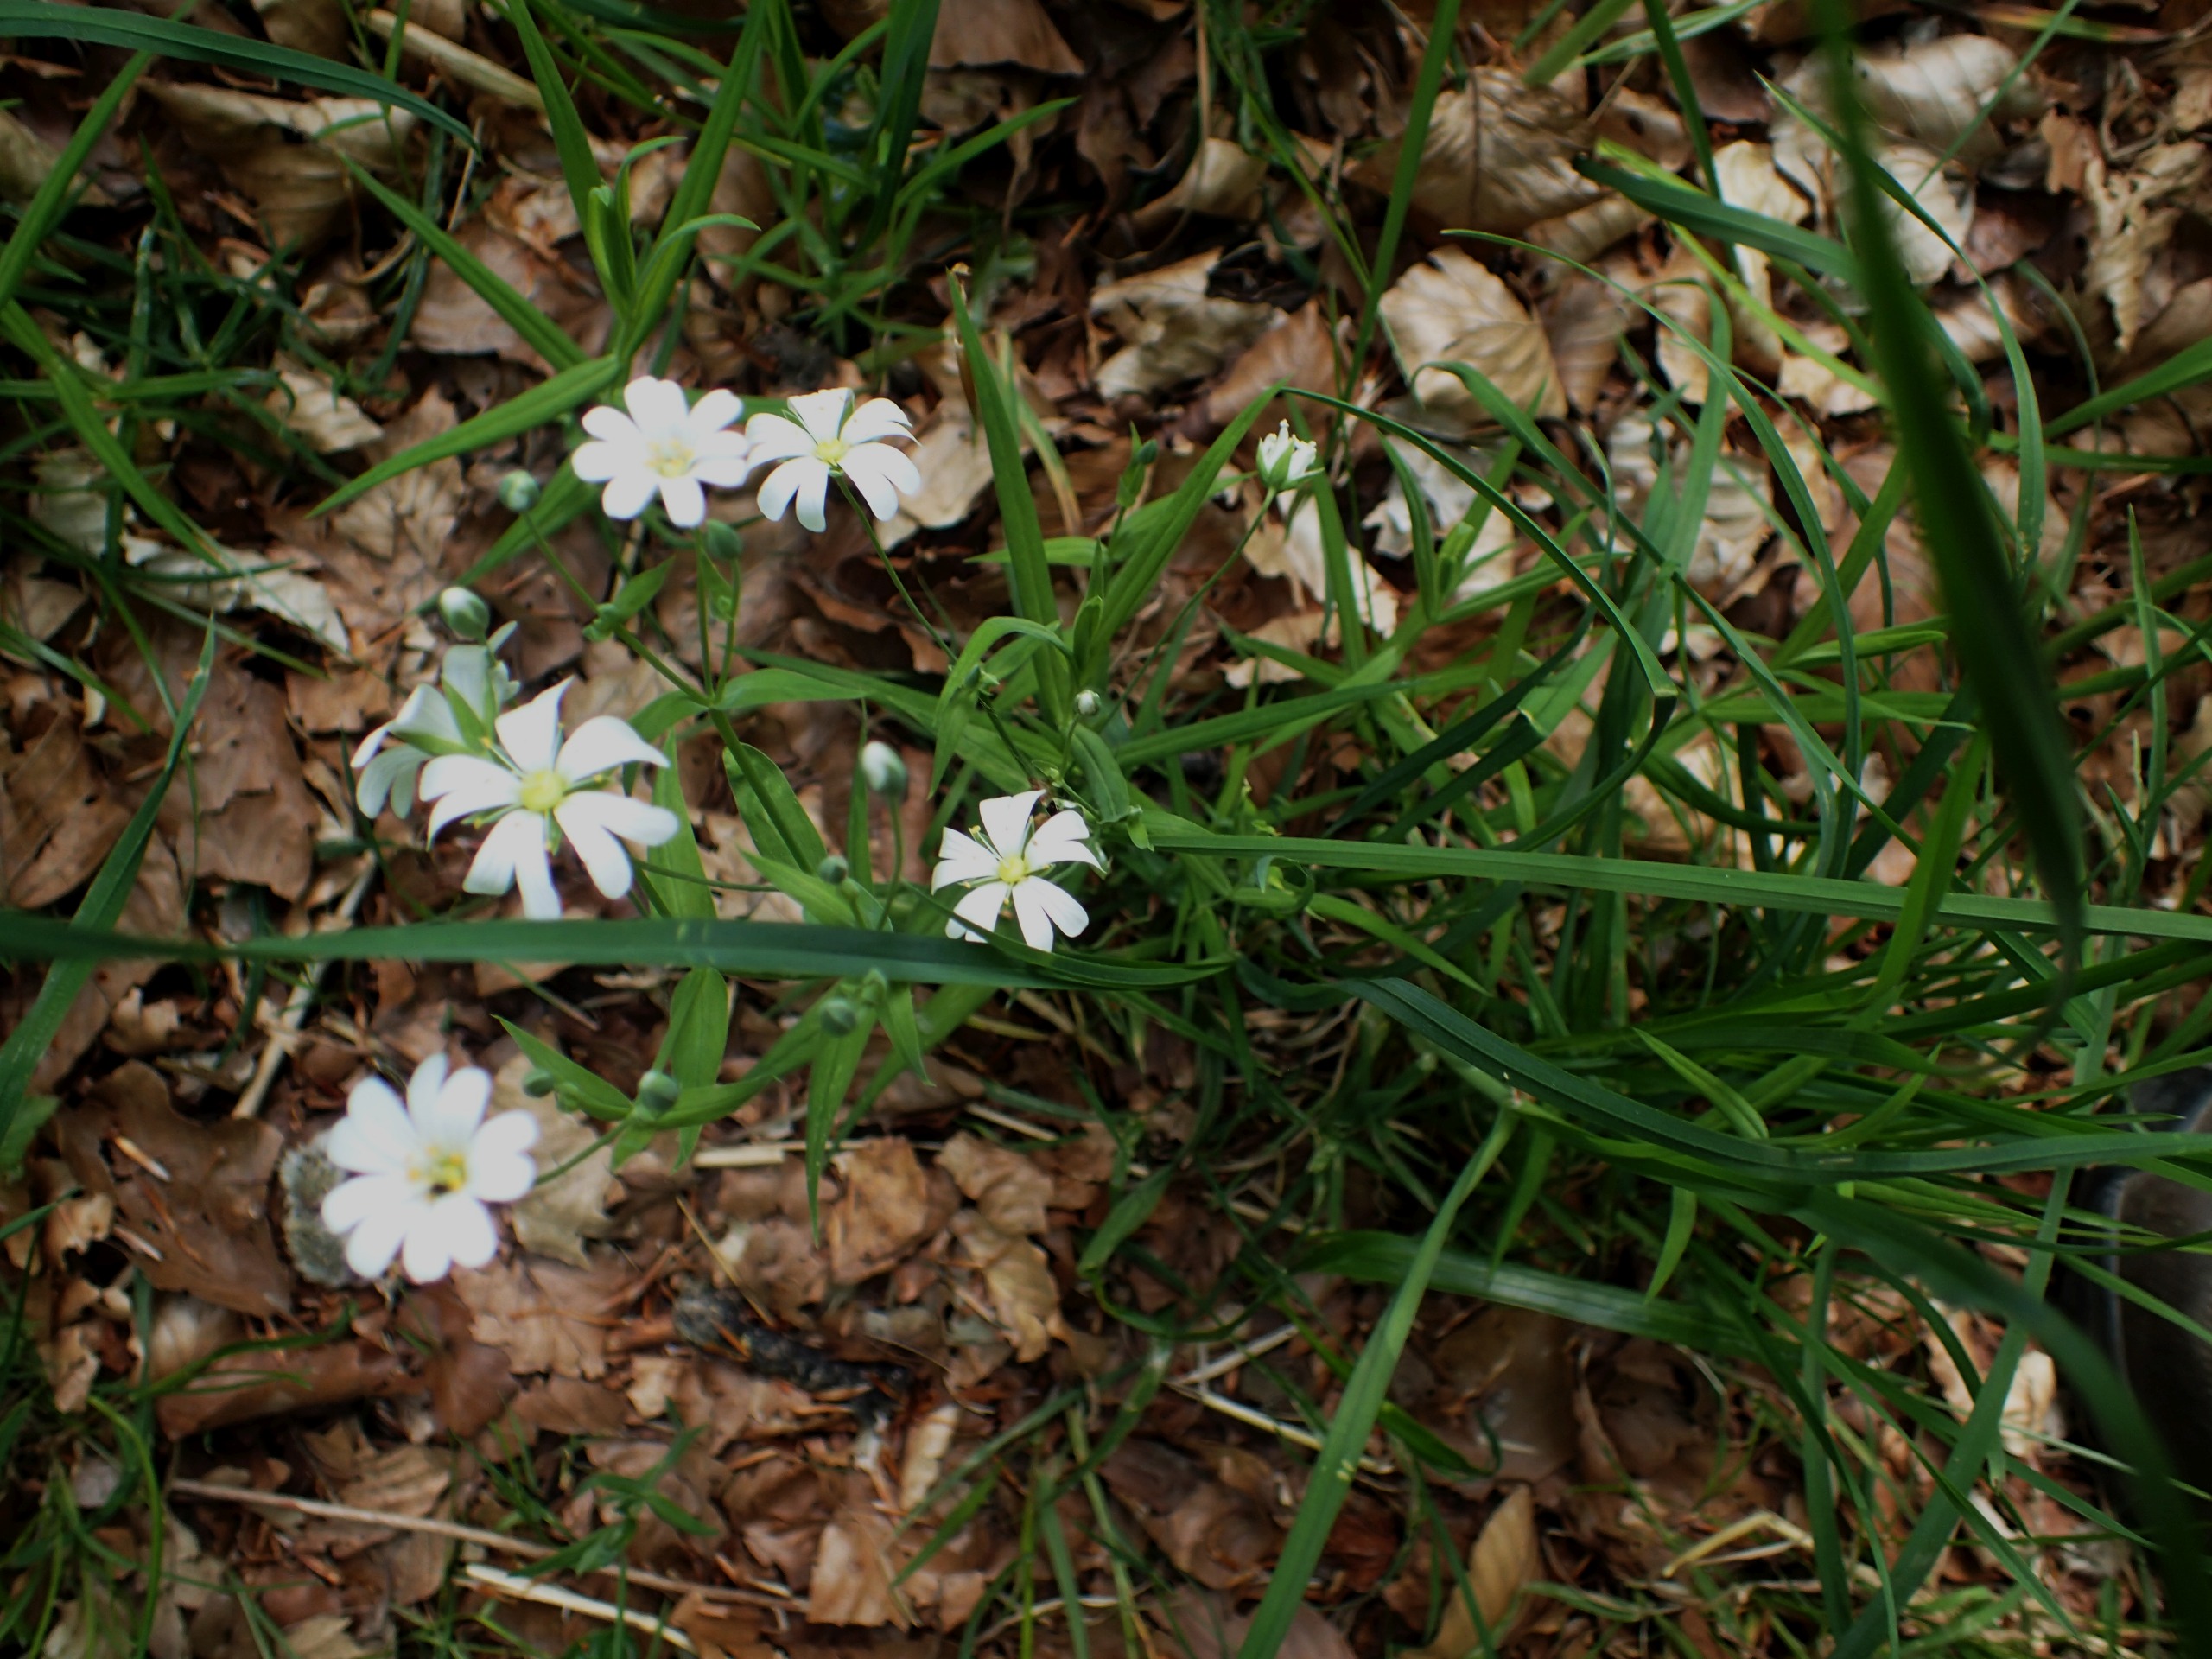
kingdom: Plantae
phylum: Tracheophyta
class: Magnoliopsida
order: Caryophyllales
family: Caryophyllaceae
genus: Rabelera
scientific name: Rabelera holostea
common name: Stor fladstjerne
